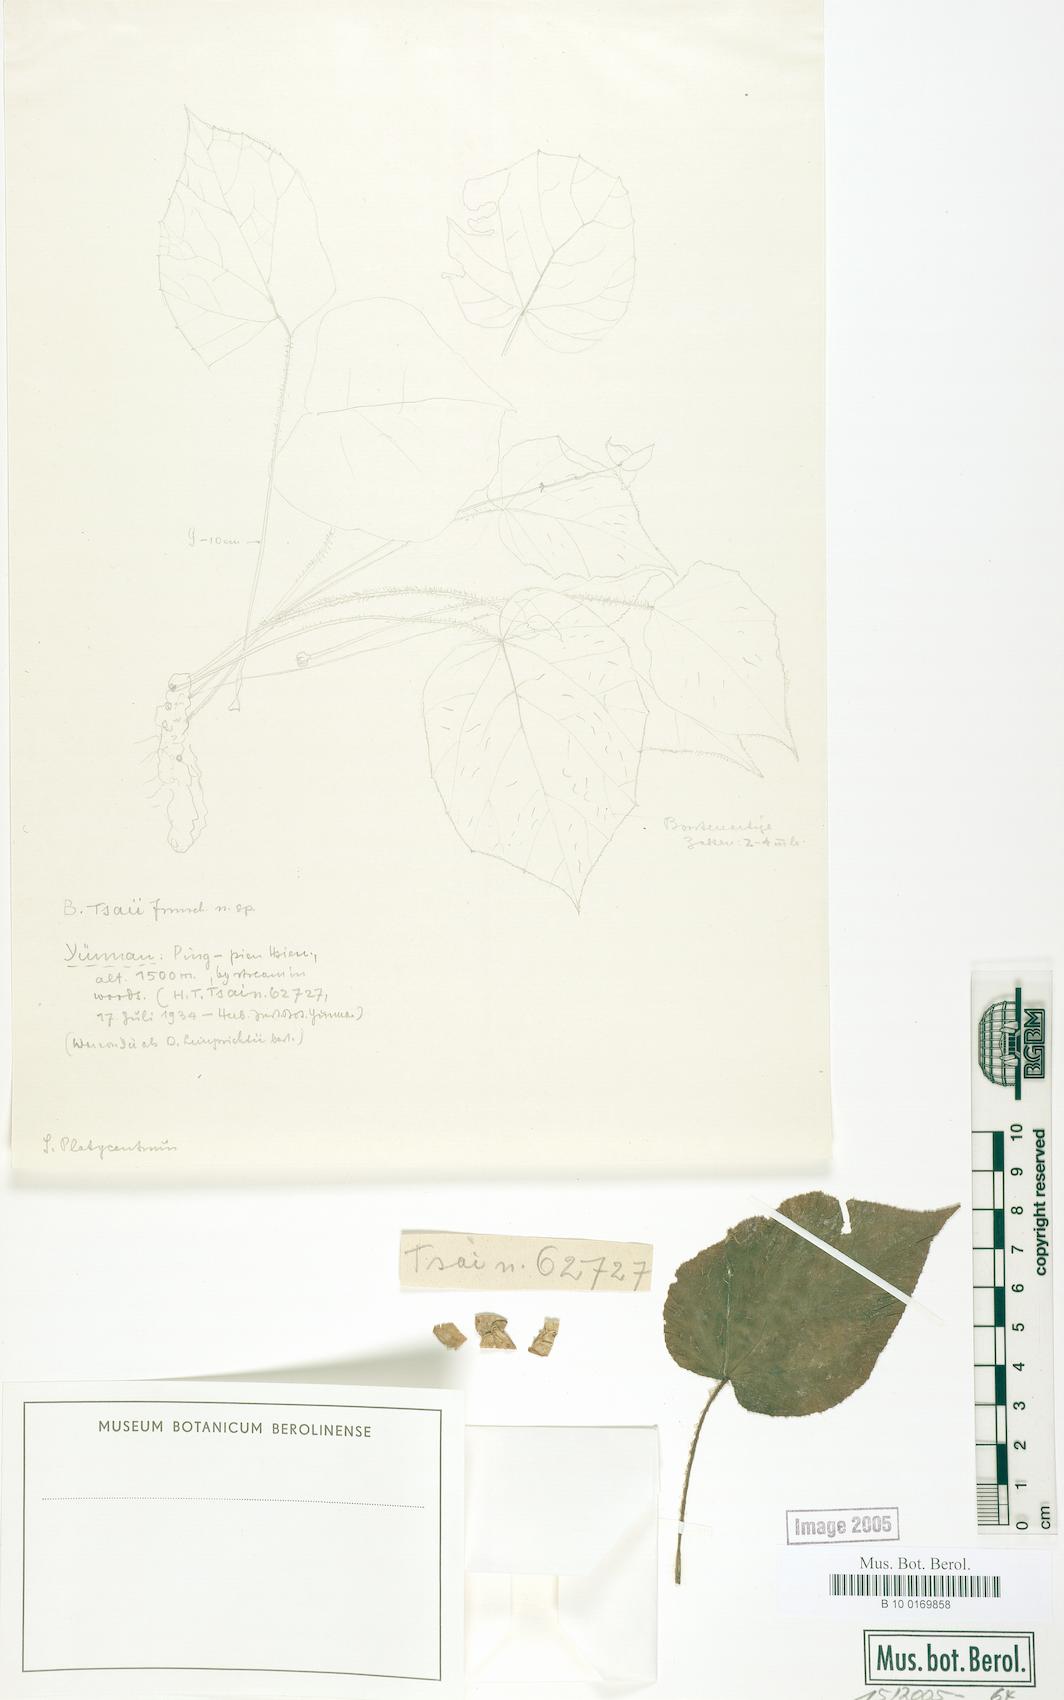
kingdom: Plantae
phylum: Tracheophyta
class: Magnoliopsida
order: Cucurbitales
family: Begoniaceae
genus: Begonia
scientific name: Begonia setifolia
